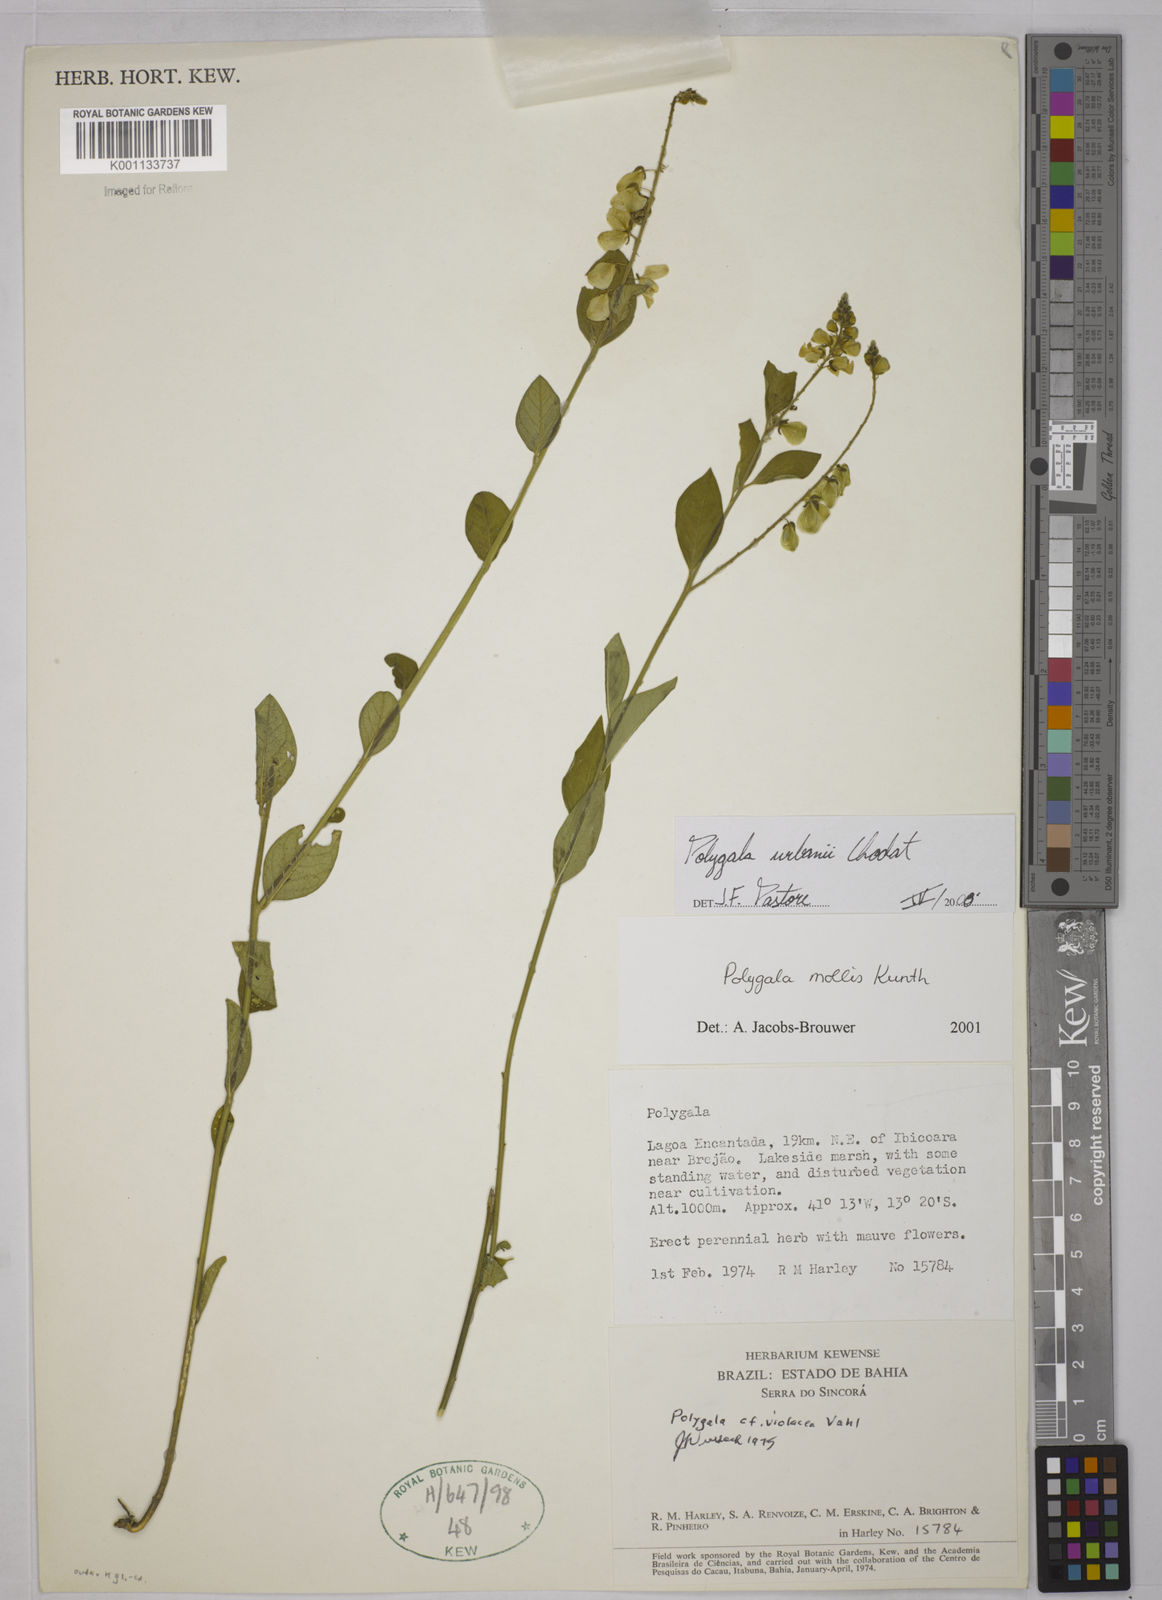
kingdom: Plantae
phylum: Tracheophyta
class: Magnoliopsida
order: Fabales
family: Polygalaceae
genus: Asemeia
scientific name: Asemeia monninoides
